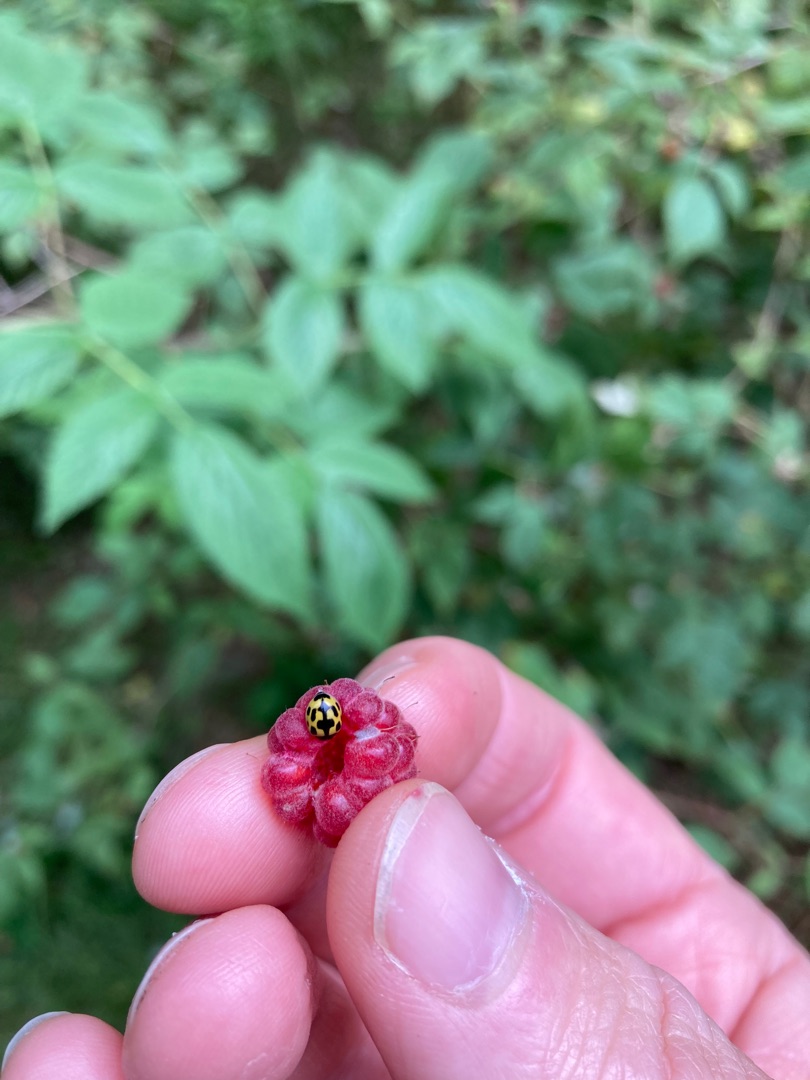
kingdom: Animalia
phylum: Arthropoda
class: Insecta
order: Coleoptera
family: Coccinellidae
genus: Propylaea
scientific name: Propylaea quatuordecimpunctata
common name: Skakbræt
